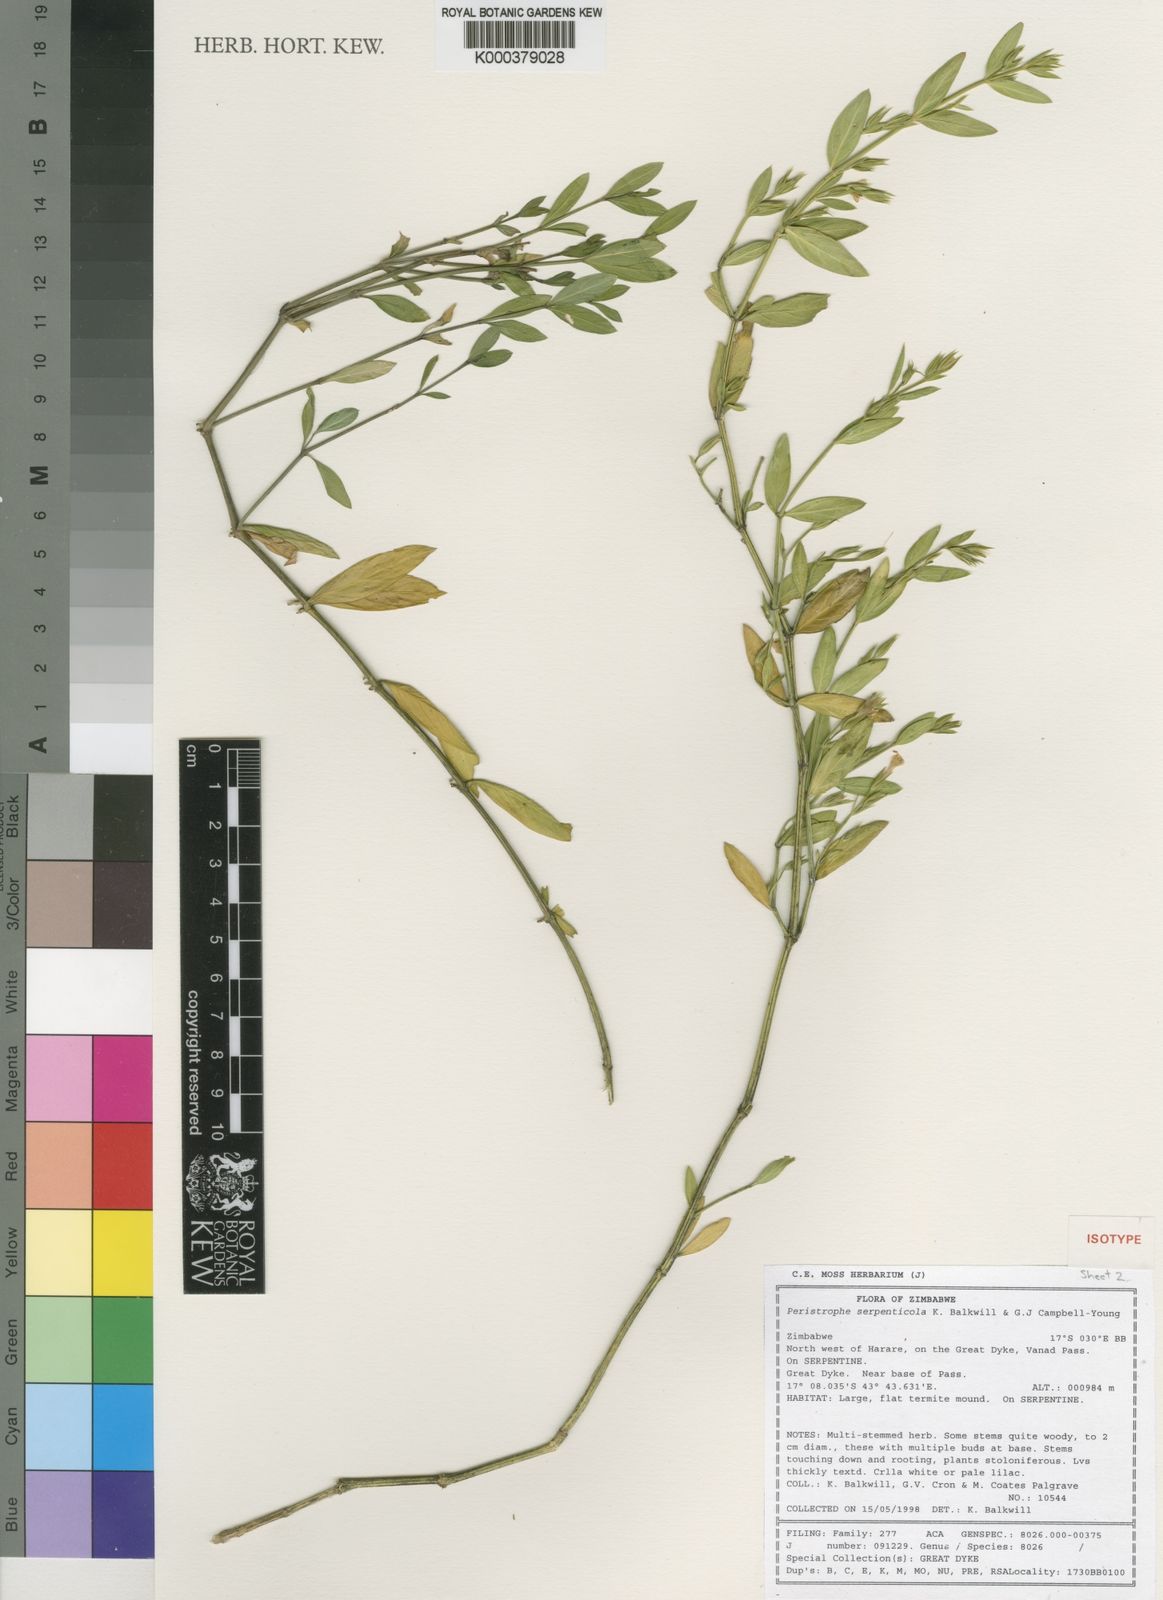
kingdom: Plantae
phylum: Tracheophyta
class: Magnoliopsida
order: Lamiales
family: Acanthaceae
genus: Dicliptera
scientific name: Dicliptera serpenticola
